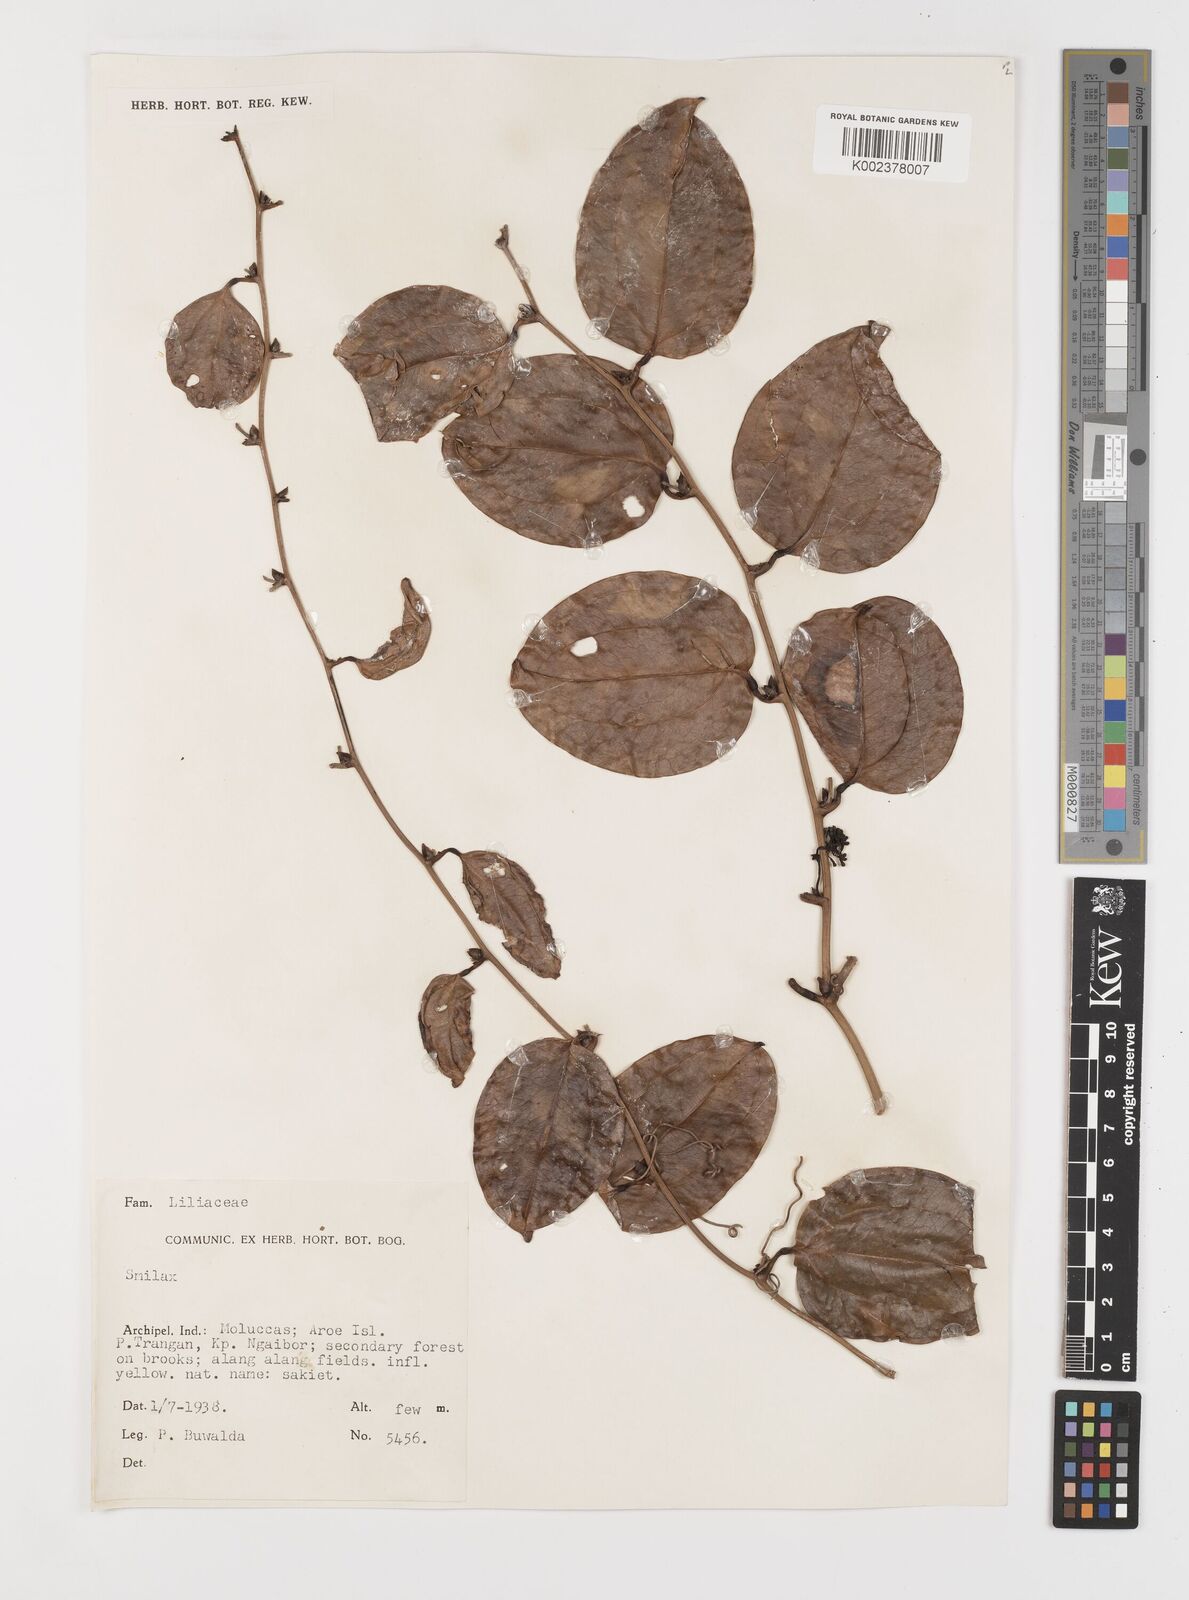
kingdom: Plantae
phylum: Tracheophyta
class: Liliopsida
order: Liliales
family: Smilacaceae
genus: Smilax
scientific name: Smilax
